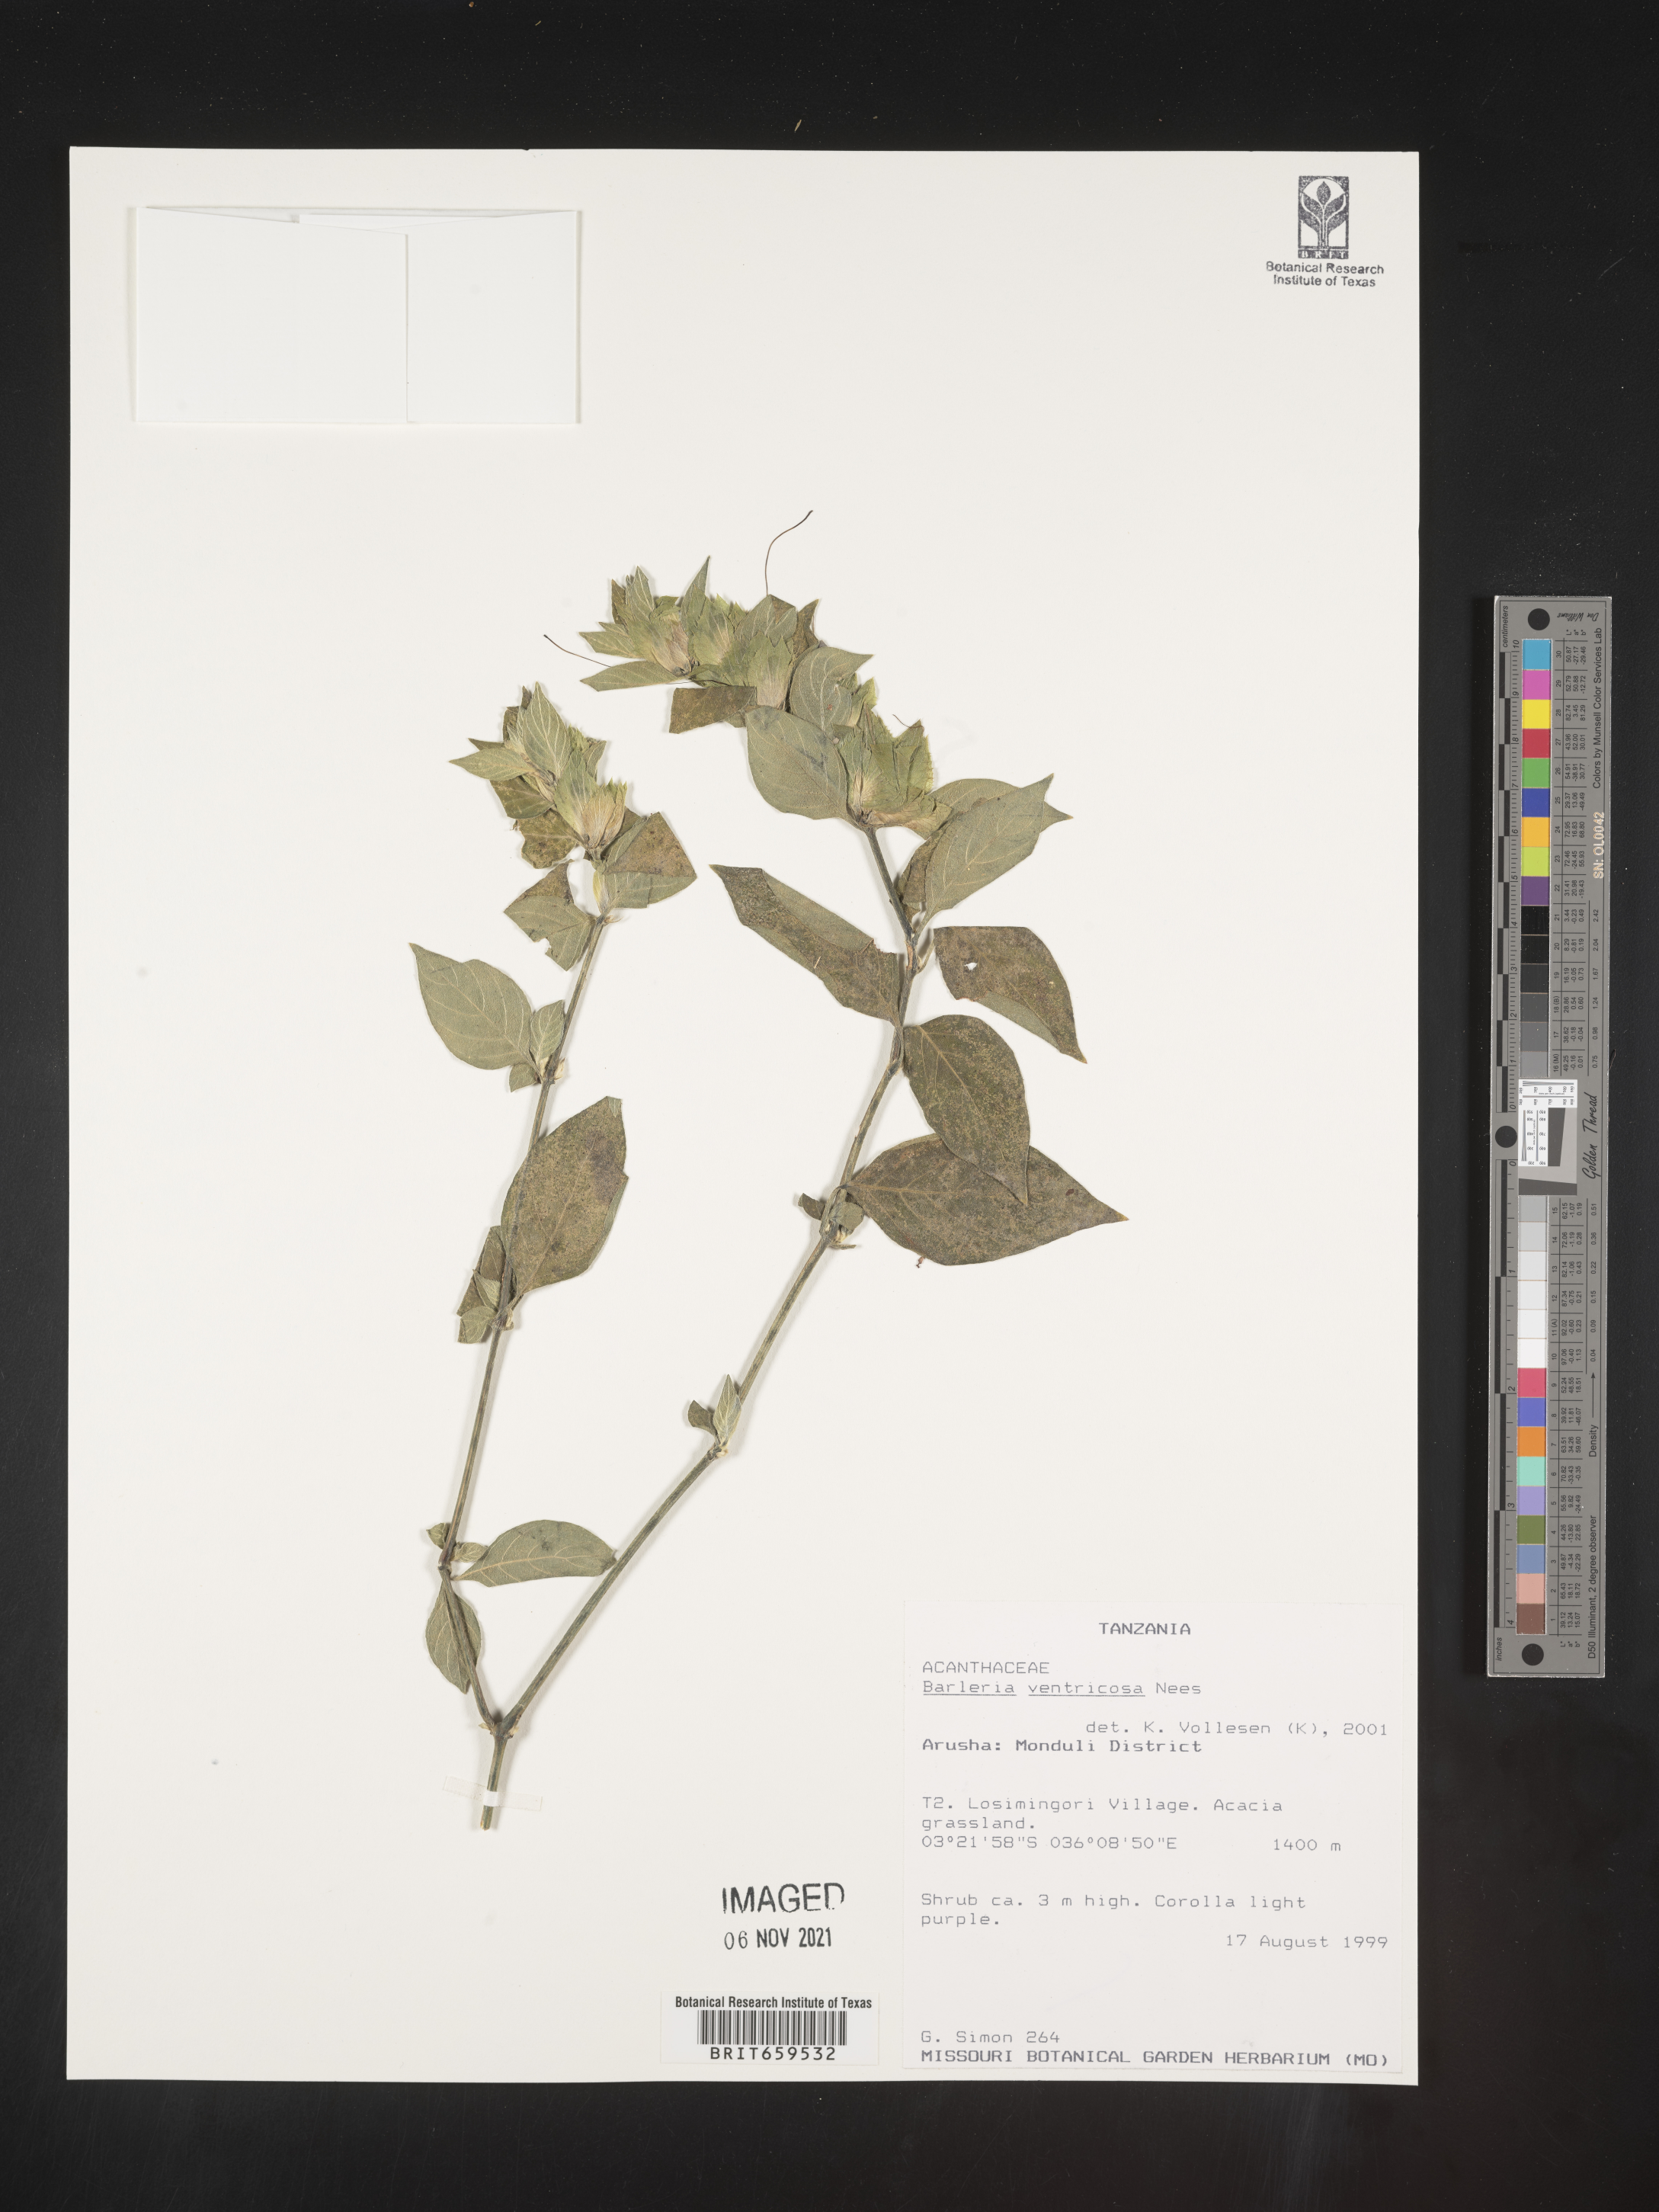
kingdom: Plantae
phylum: Tracheophyta
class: Magnoliopsida
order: Lamiales
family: Acanthaceae
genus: Barleria
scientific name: Barleria ventricosa
